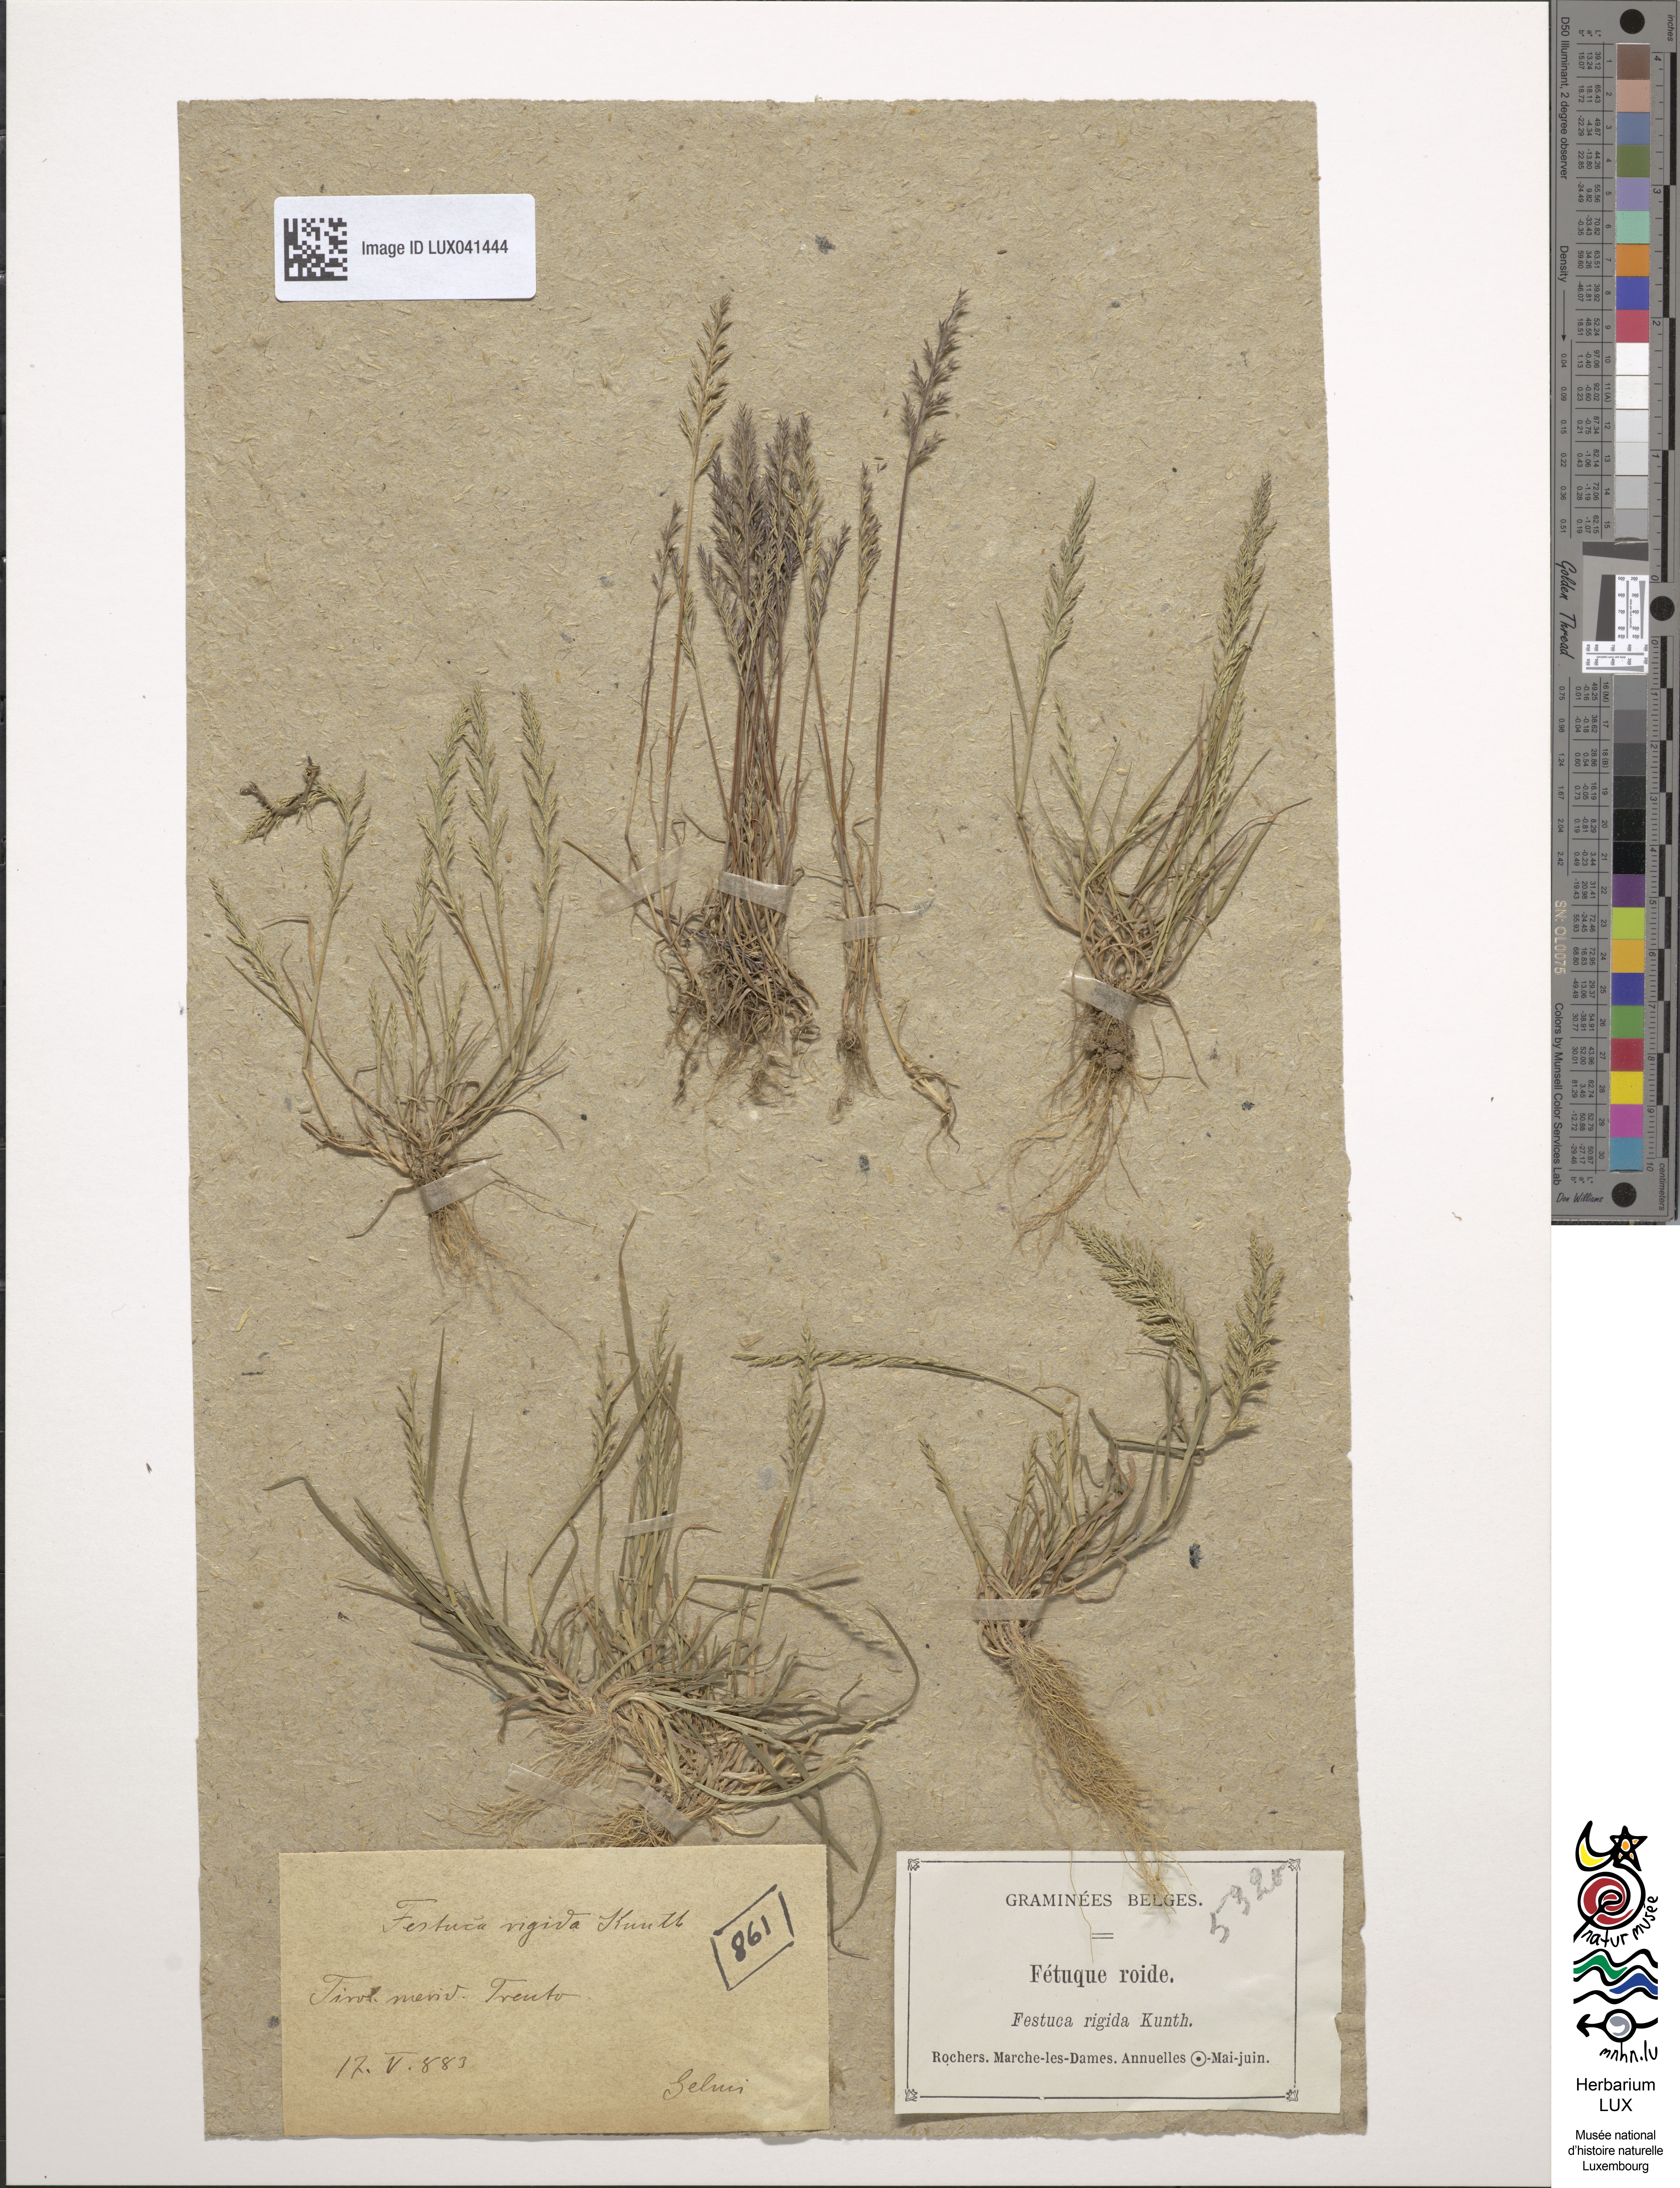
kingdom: Plantae
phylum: Tracheophyta
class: Liliopsida
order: Poales
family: Poaceae
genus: Catapodium
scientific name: Catapodium rigidum
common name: Fern-grass
